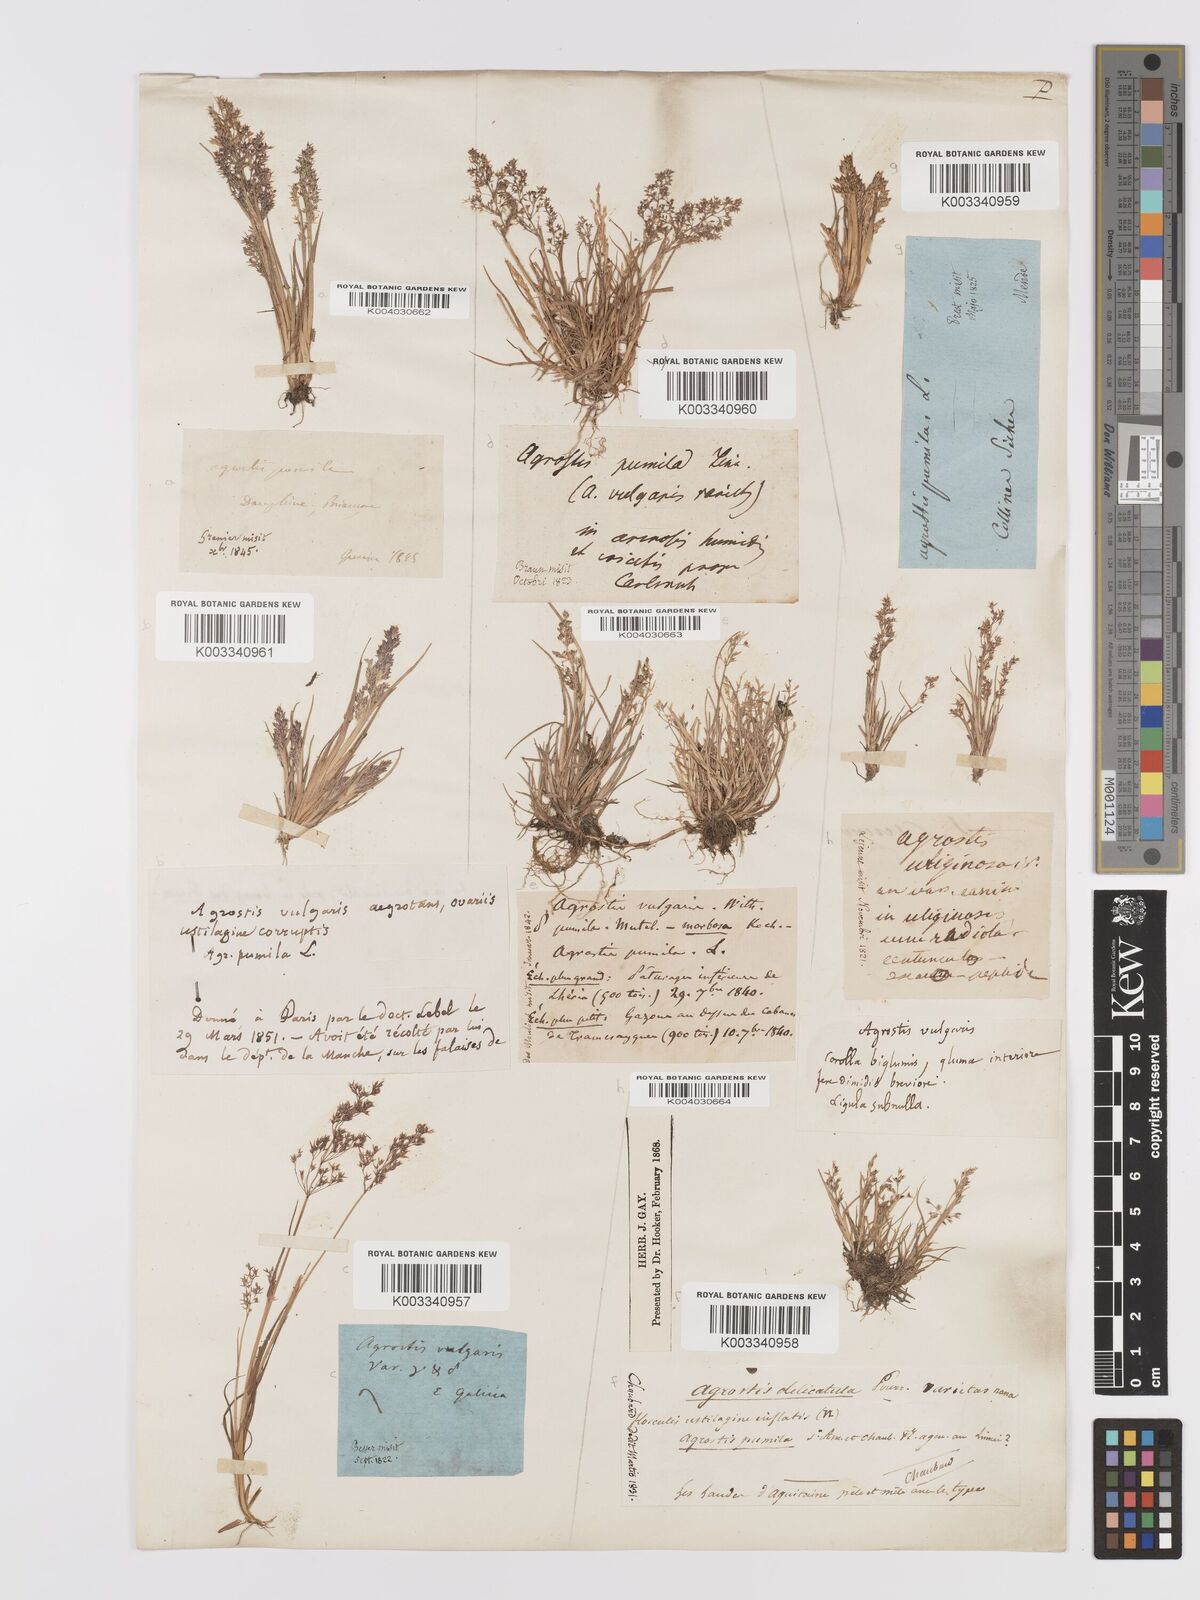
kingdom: Plantae
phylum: Tracheophyta
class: Liliopsida
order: Poales
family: Poaceae
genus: Agrostis
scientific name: Agrostis capillaris
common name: Colonial bentgrass
